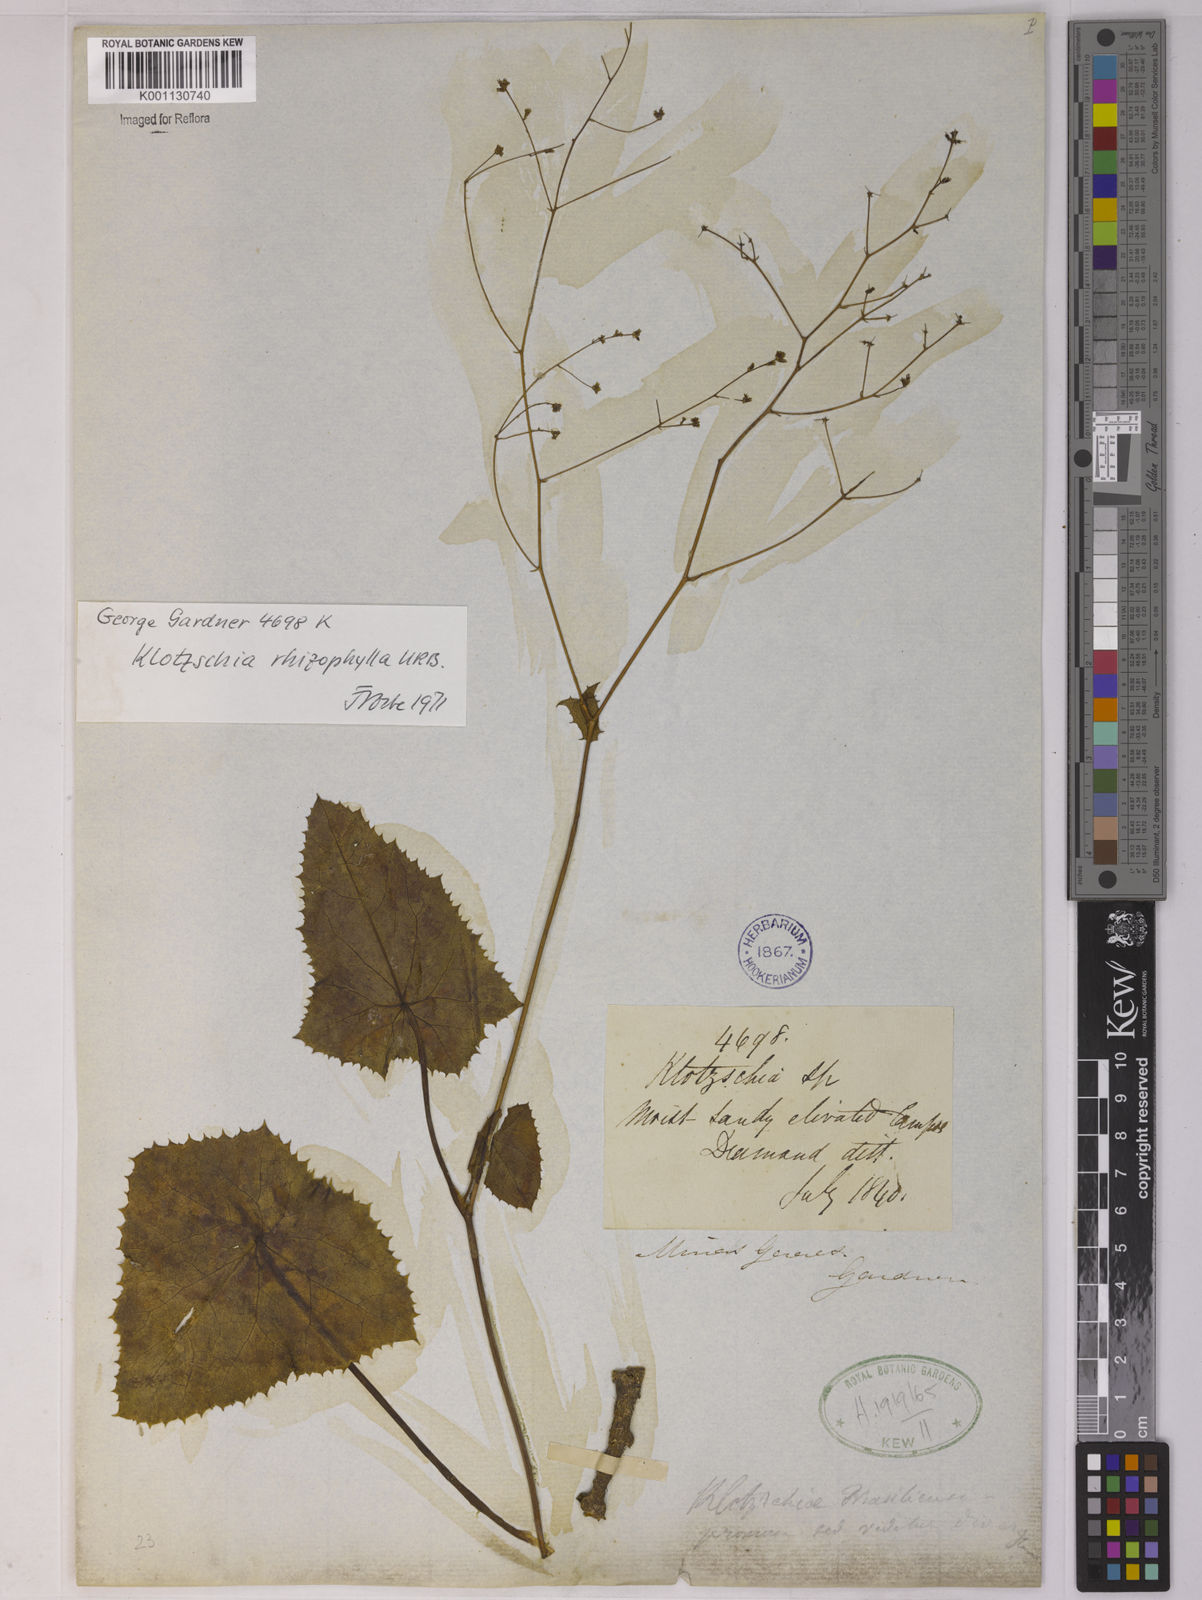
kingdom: Plantae
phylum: Tracheophyta
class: Magnoliopsida
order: Apiales
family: Apiaceae
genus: Klotzschia
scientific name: Klotzschia brasiliensis
